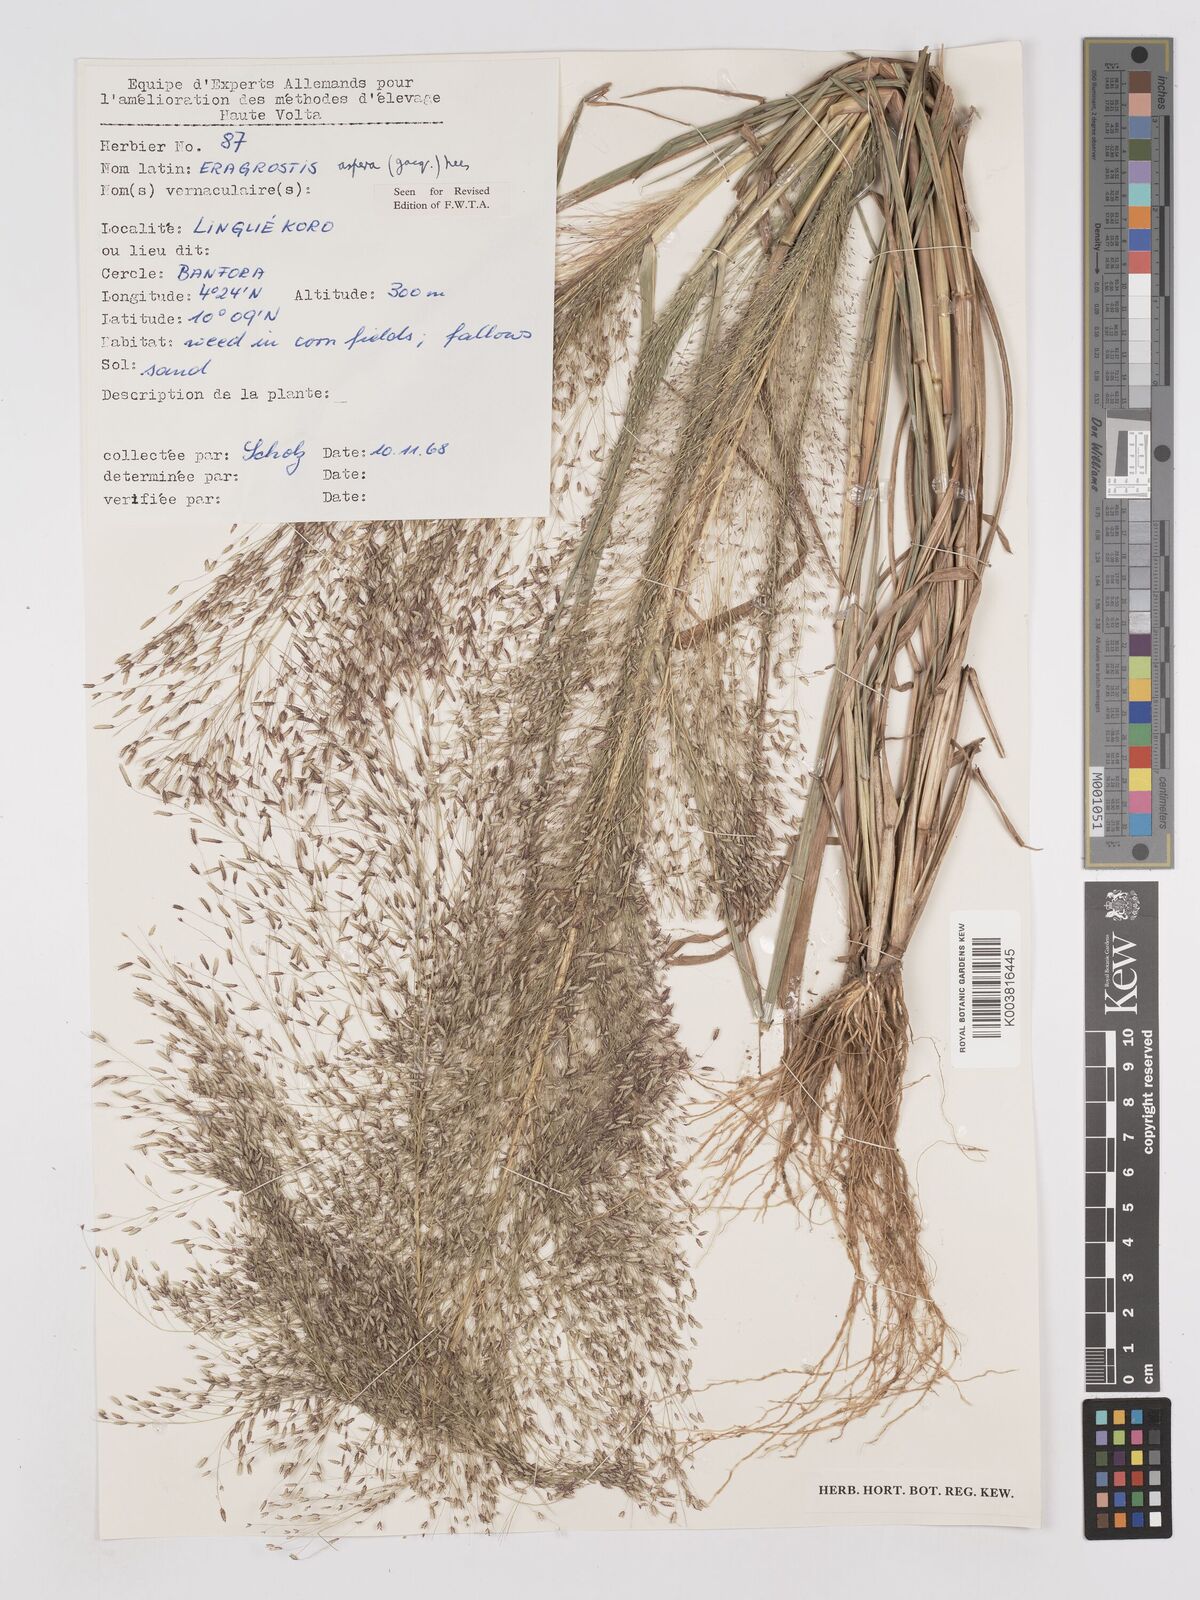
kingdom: Plantae
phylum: Tracheophyta
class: Liliopsida
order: Poales
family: Poaceae
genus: Eragrostis
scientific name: Eragrostis aspera
